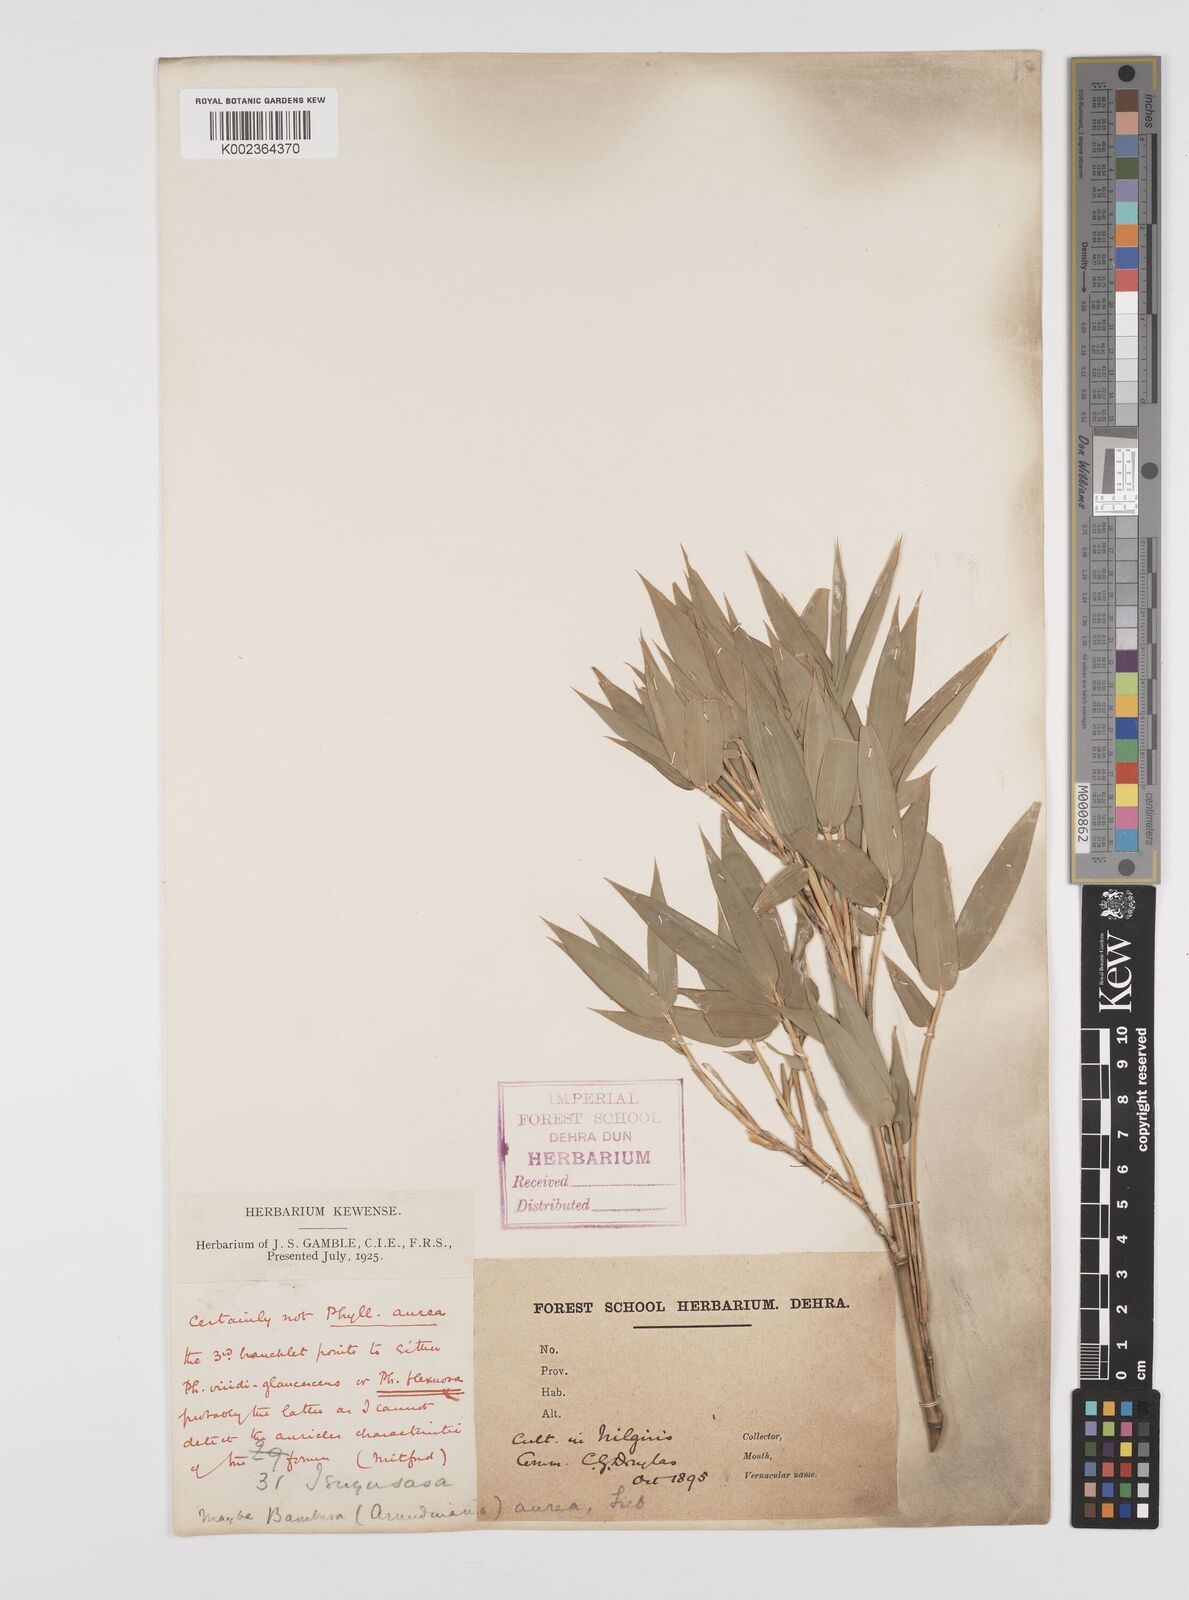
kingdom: Plantae
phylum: Tracheophyta
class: Liliopsida
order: Poales
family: Poaceae
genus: Phyllostachys
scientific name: Phyllostachys
